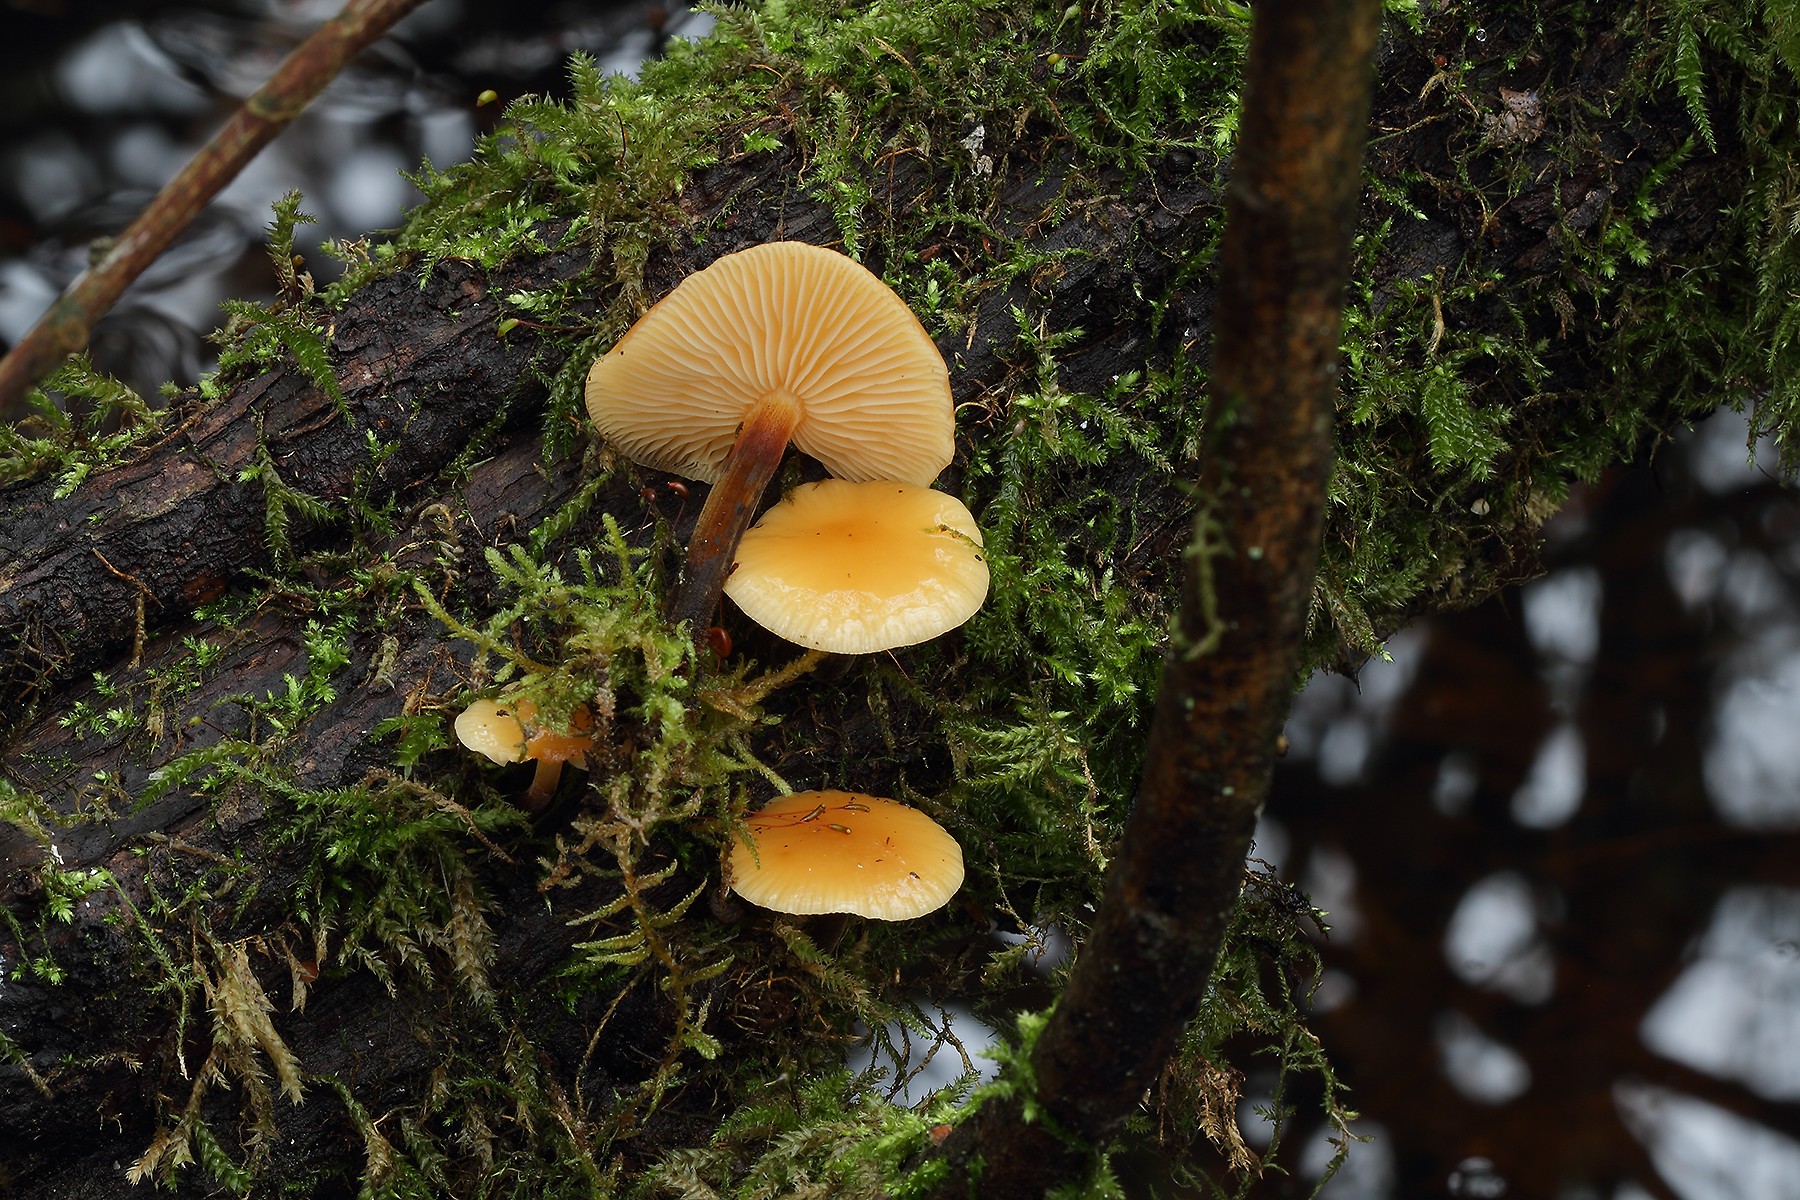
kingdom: Fungi
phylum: Basidiomycota
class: Agaricomycetes
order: Agaricales
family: Physalacriaceae
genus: Flammulina
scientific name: Flammulina velutipes
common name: gul fløjlsfod
